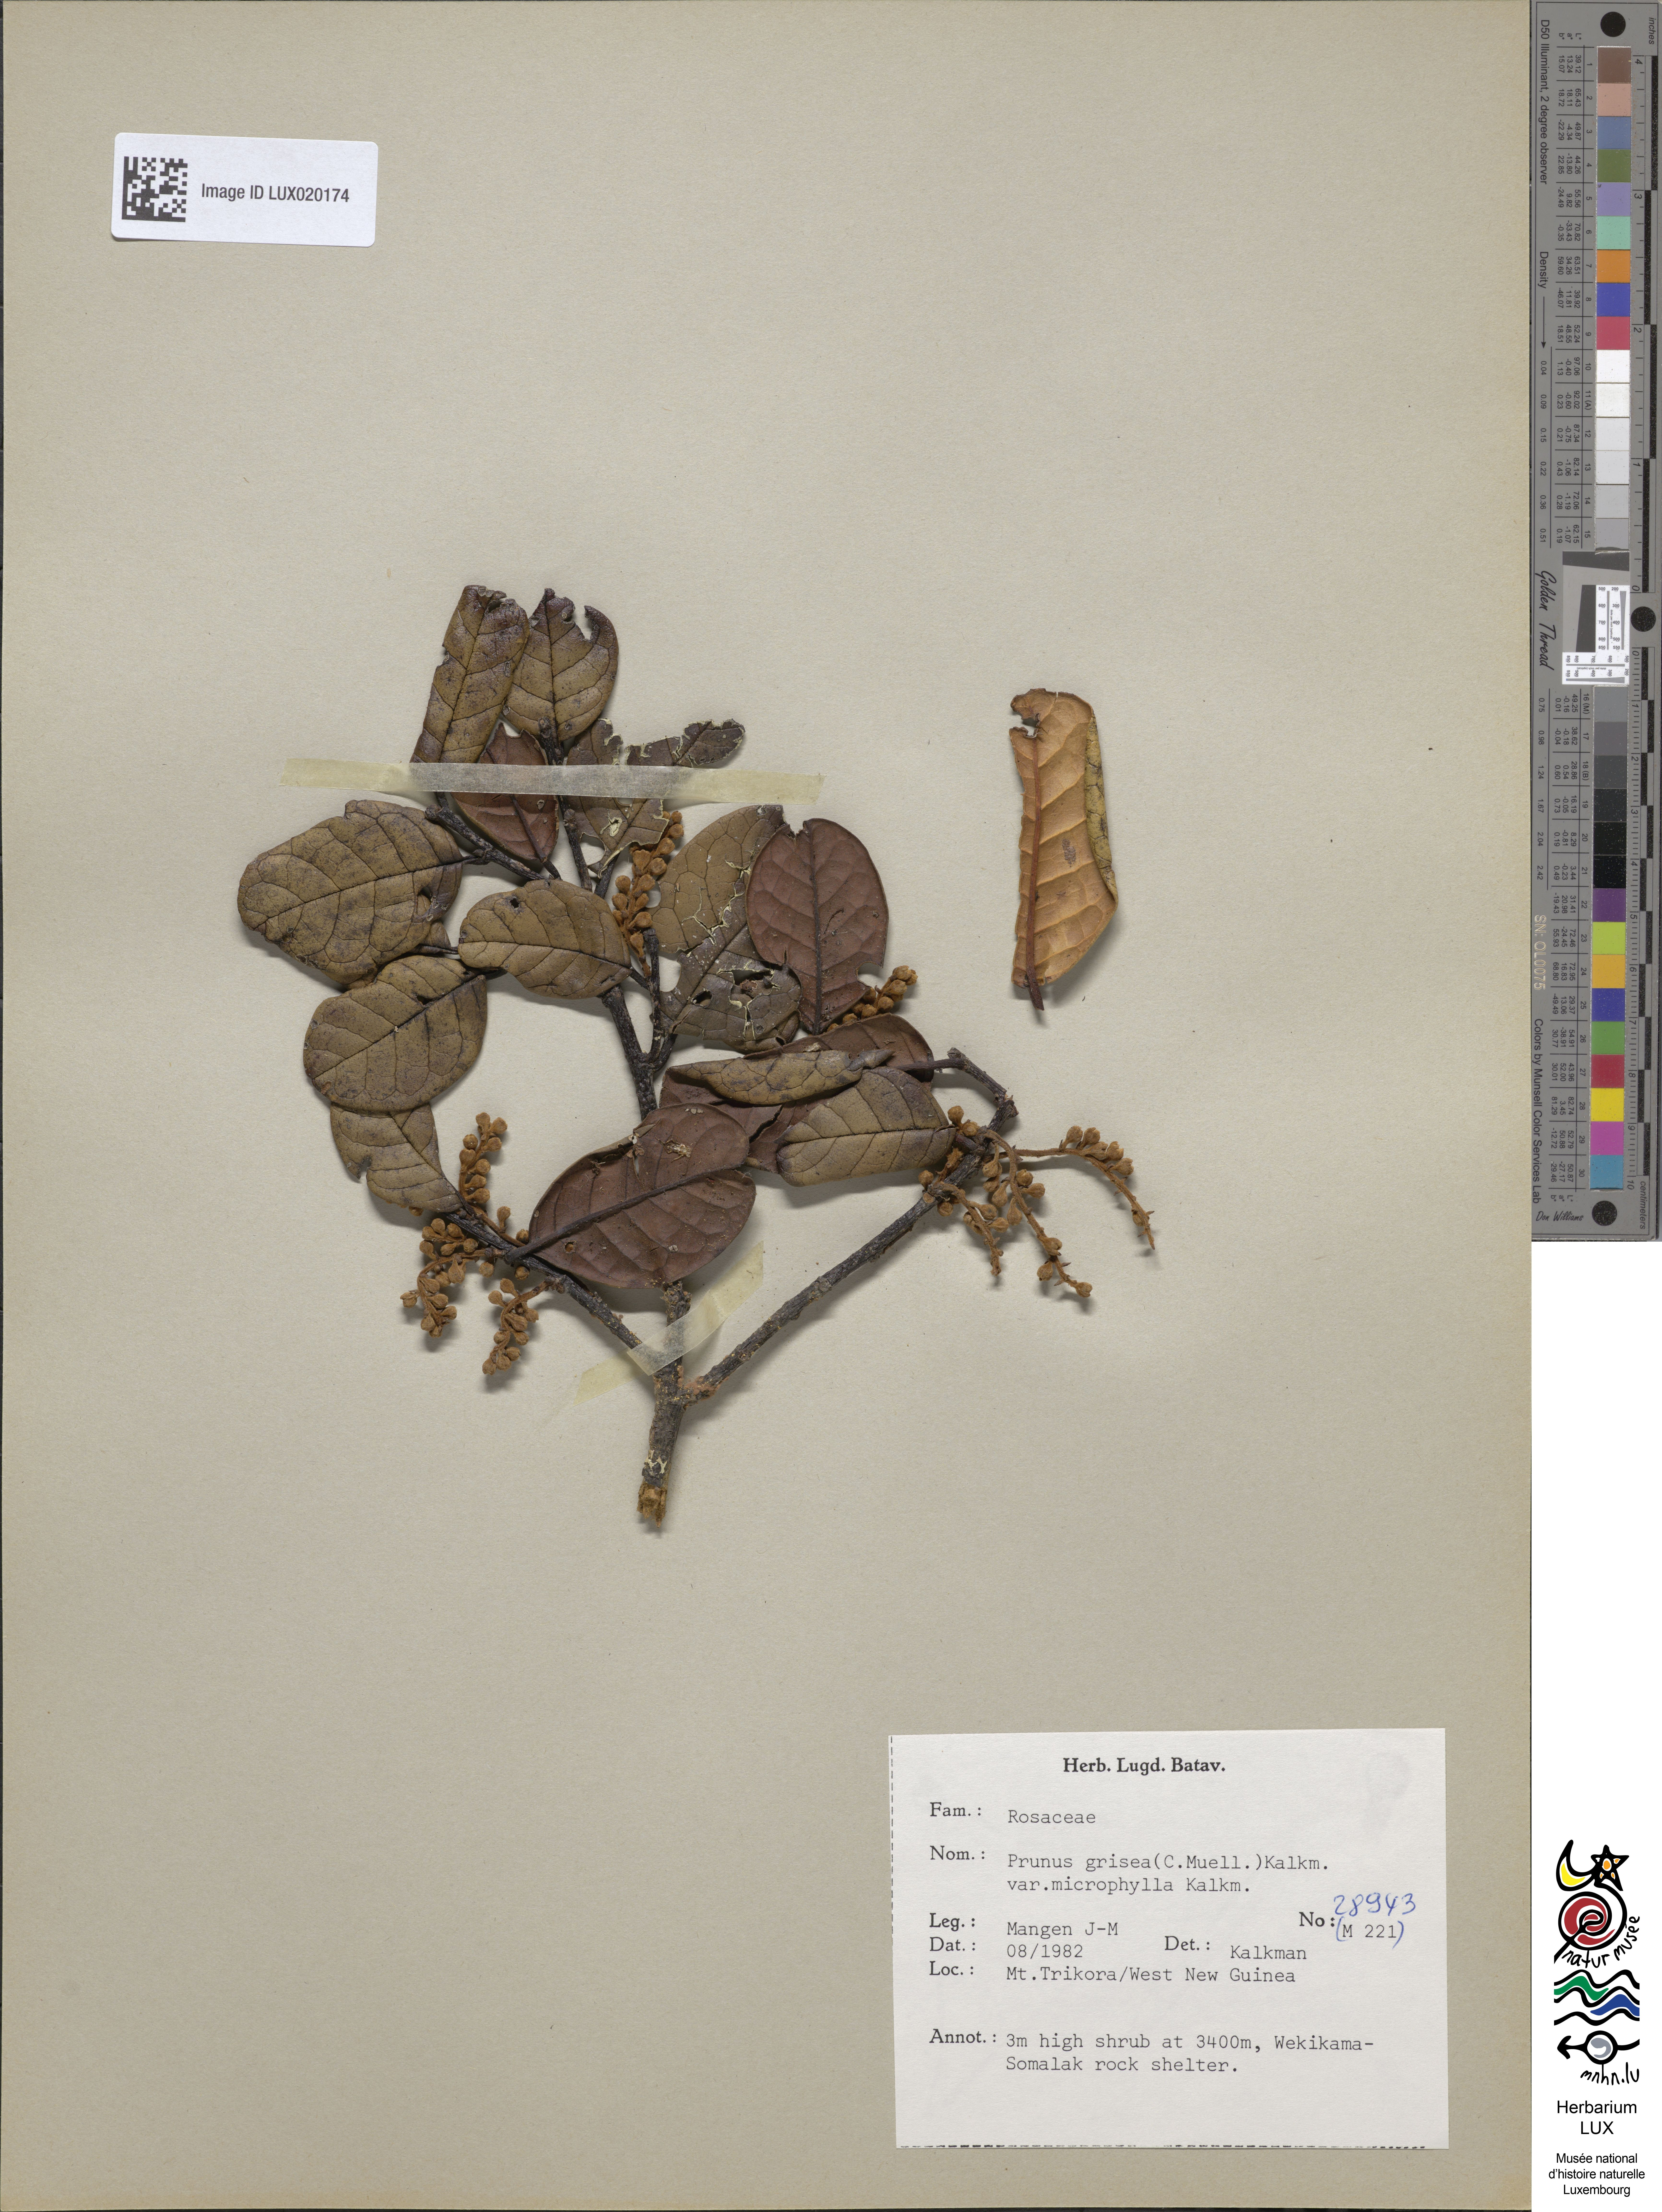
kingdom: Plantae
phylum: Tracheophyta
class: Magnoliopsida
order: Rosales
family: Rosaceae
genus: Prunus
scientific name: Prunus grisea
